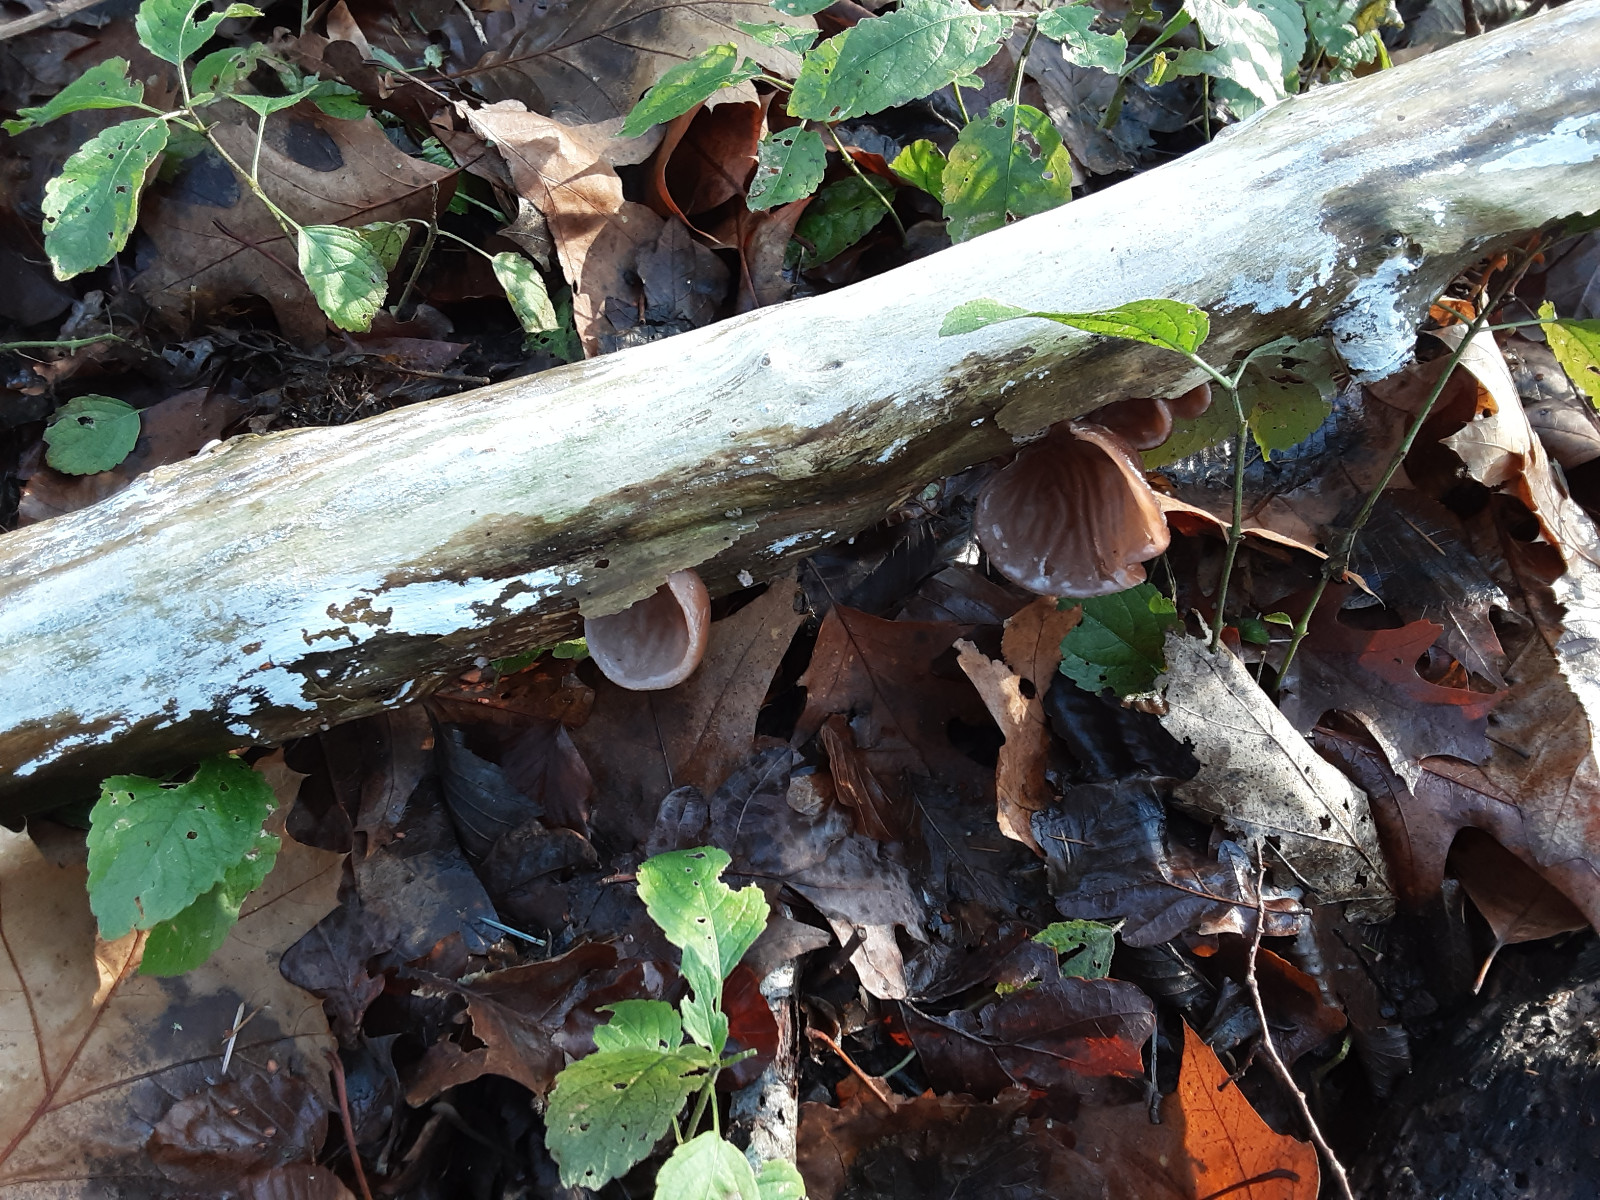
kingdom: Fungi
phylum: Basidiomycota
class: Agaricomycetes
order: Auriculariales
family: Auriculariaceae
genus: Auricularia
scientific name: Auricularia auricula-judae
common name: almindelig judasøre
